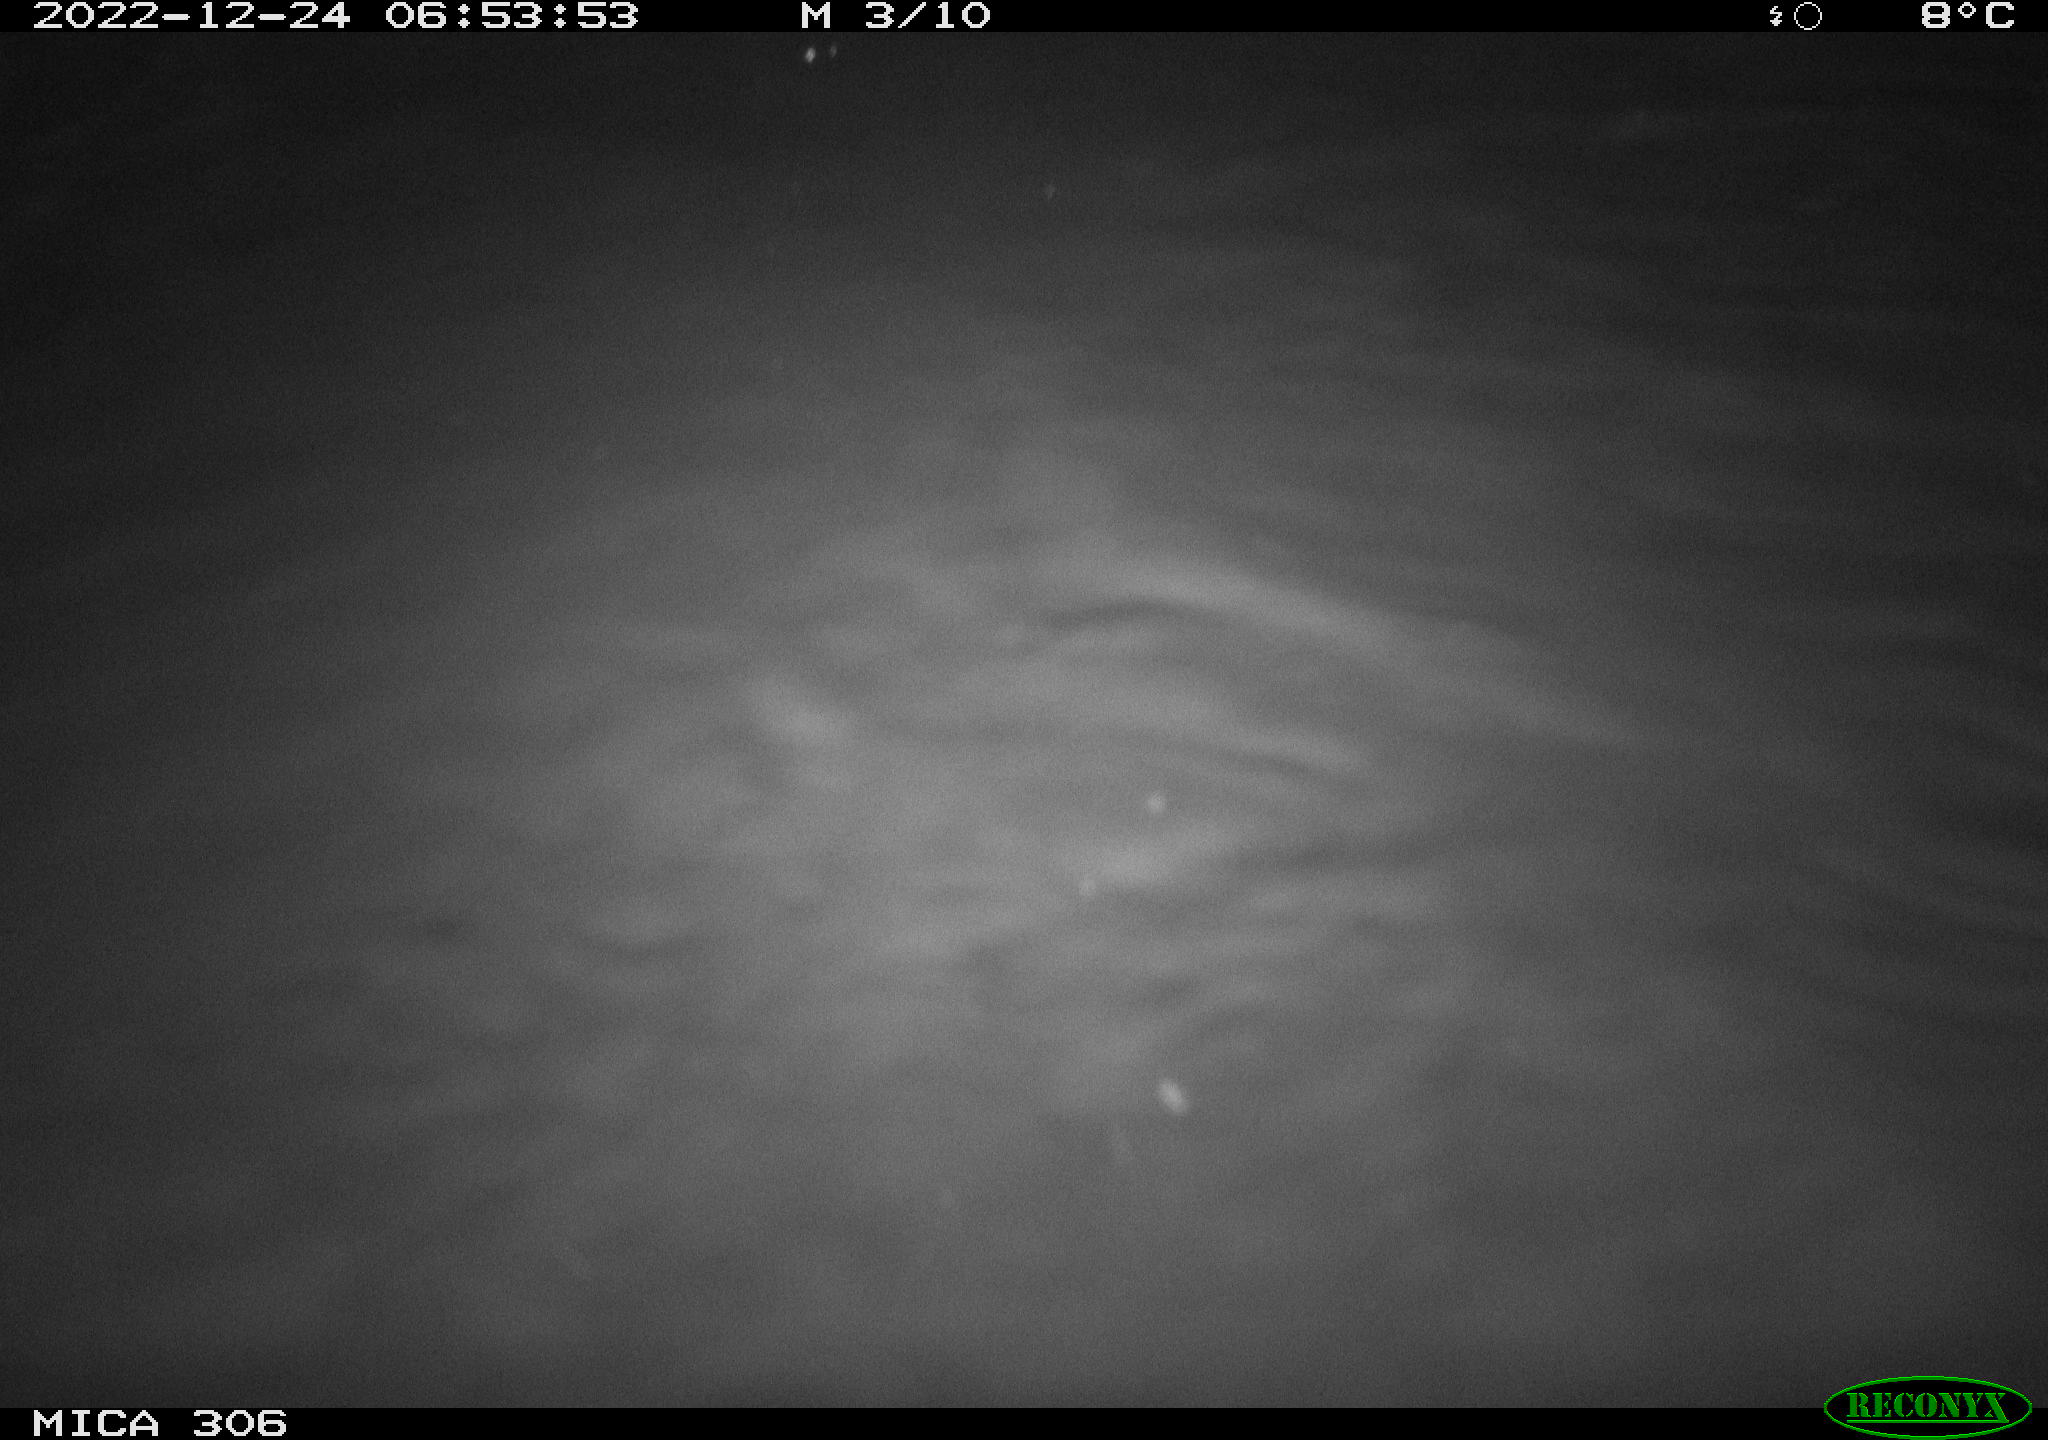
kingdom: Animalia
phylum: Chordata
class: Mammalia
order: Rodentia
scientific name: Rodentia
